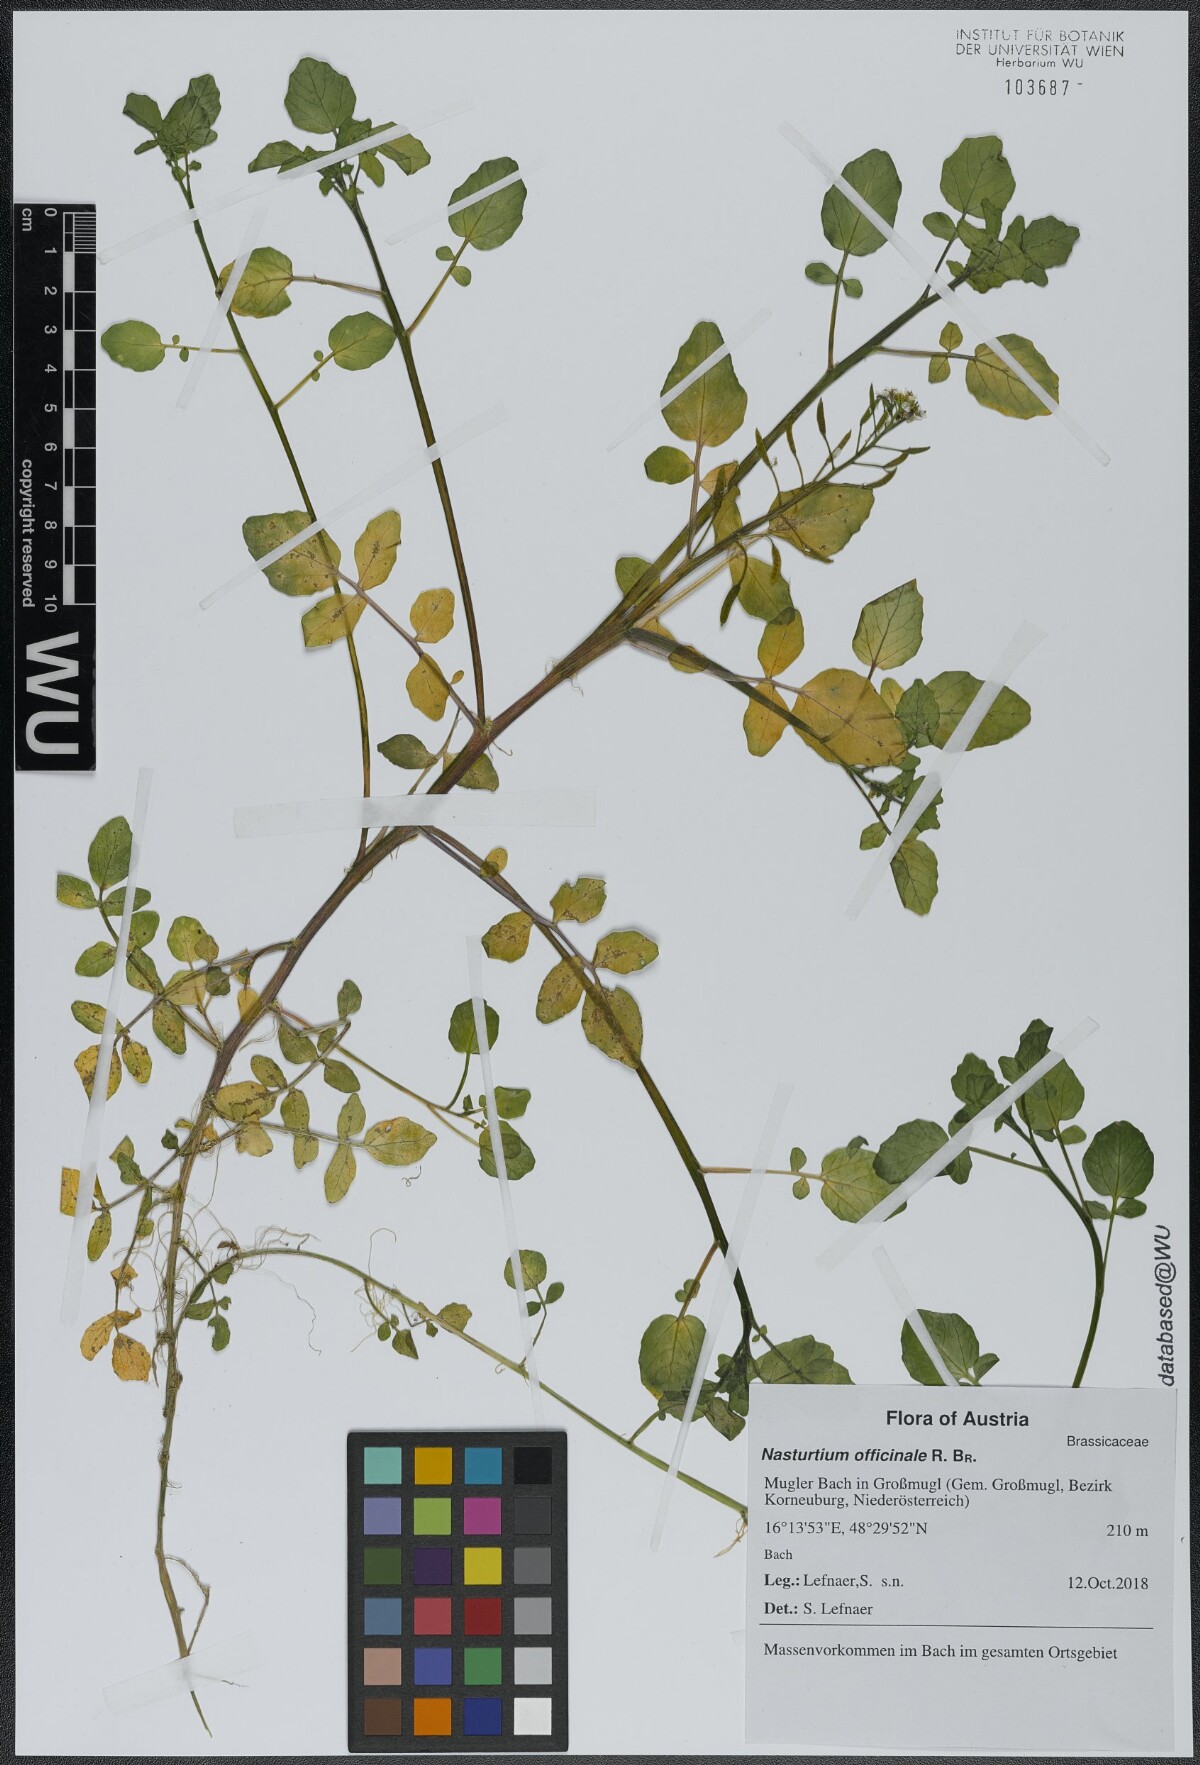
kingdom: Plantae
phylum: Tracheophyta
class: Magnoliopsida
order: Brassicales
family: Brassicaceae
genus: Nasturtium
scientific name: Nasturtium officinale
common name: Watercress
